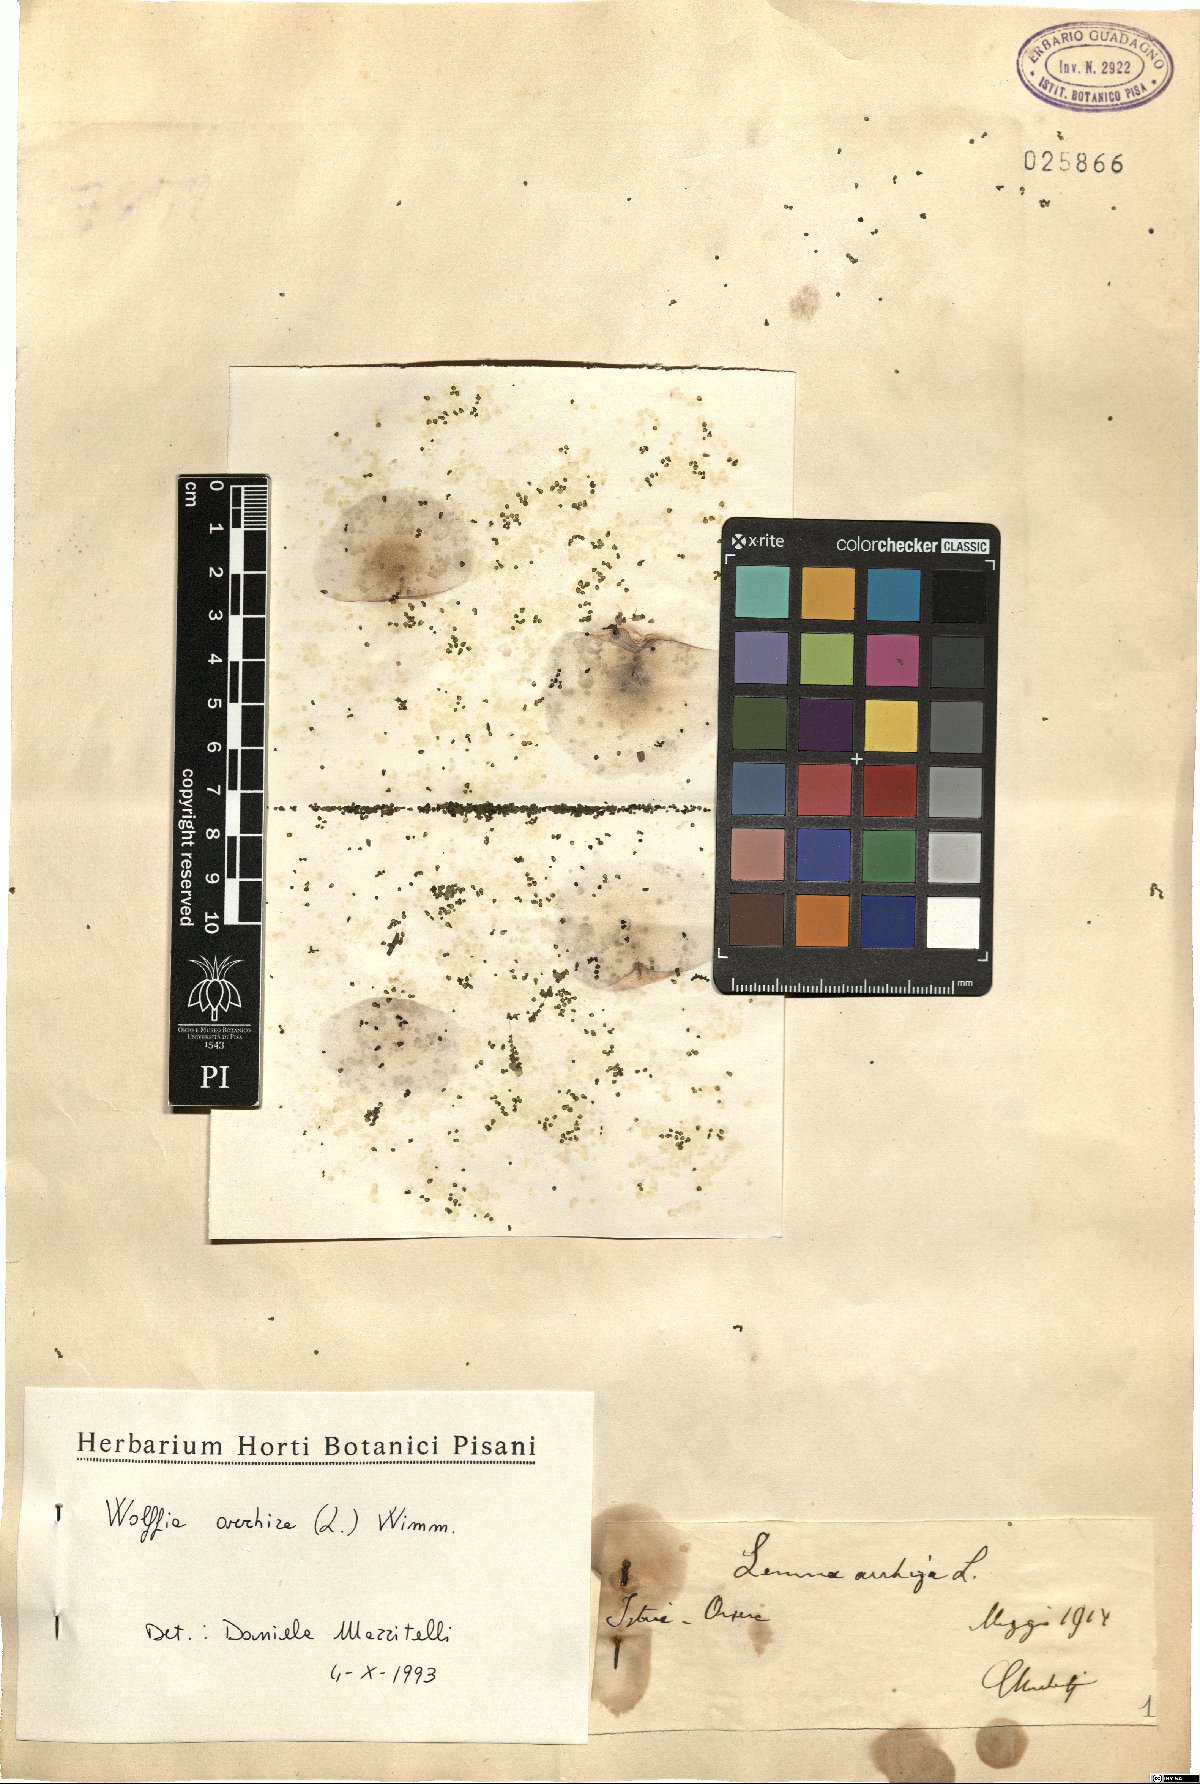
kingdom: Plantae
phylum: Tracheophyta
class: Liliopsida
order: Alismatales
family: Araceae
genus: Wolffia
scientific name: Wolffia arrhiza
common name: Rootless duckweed
